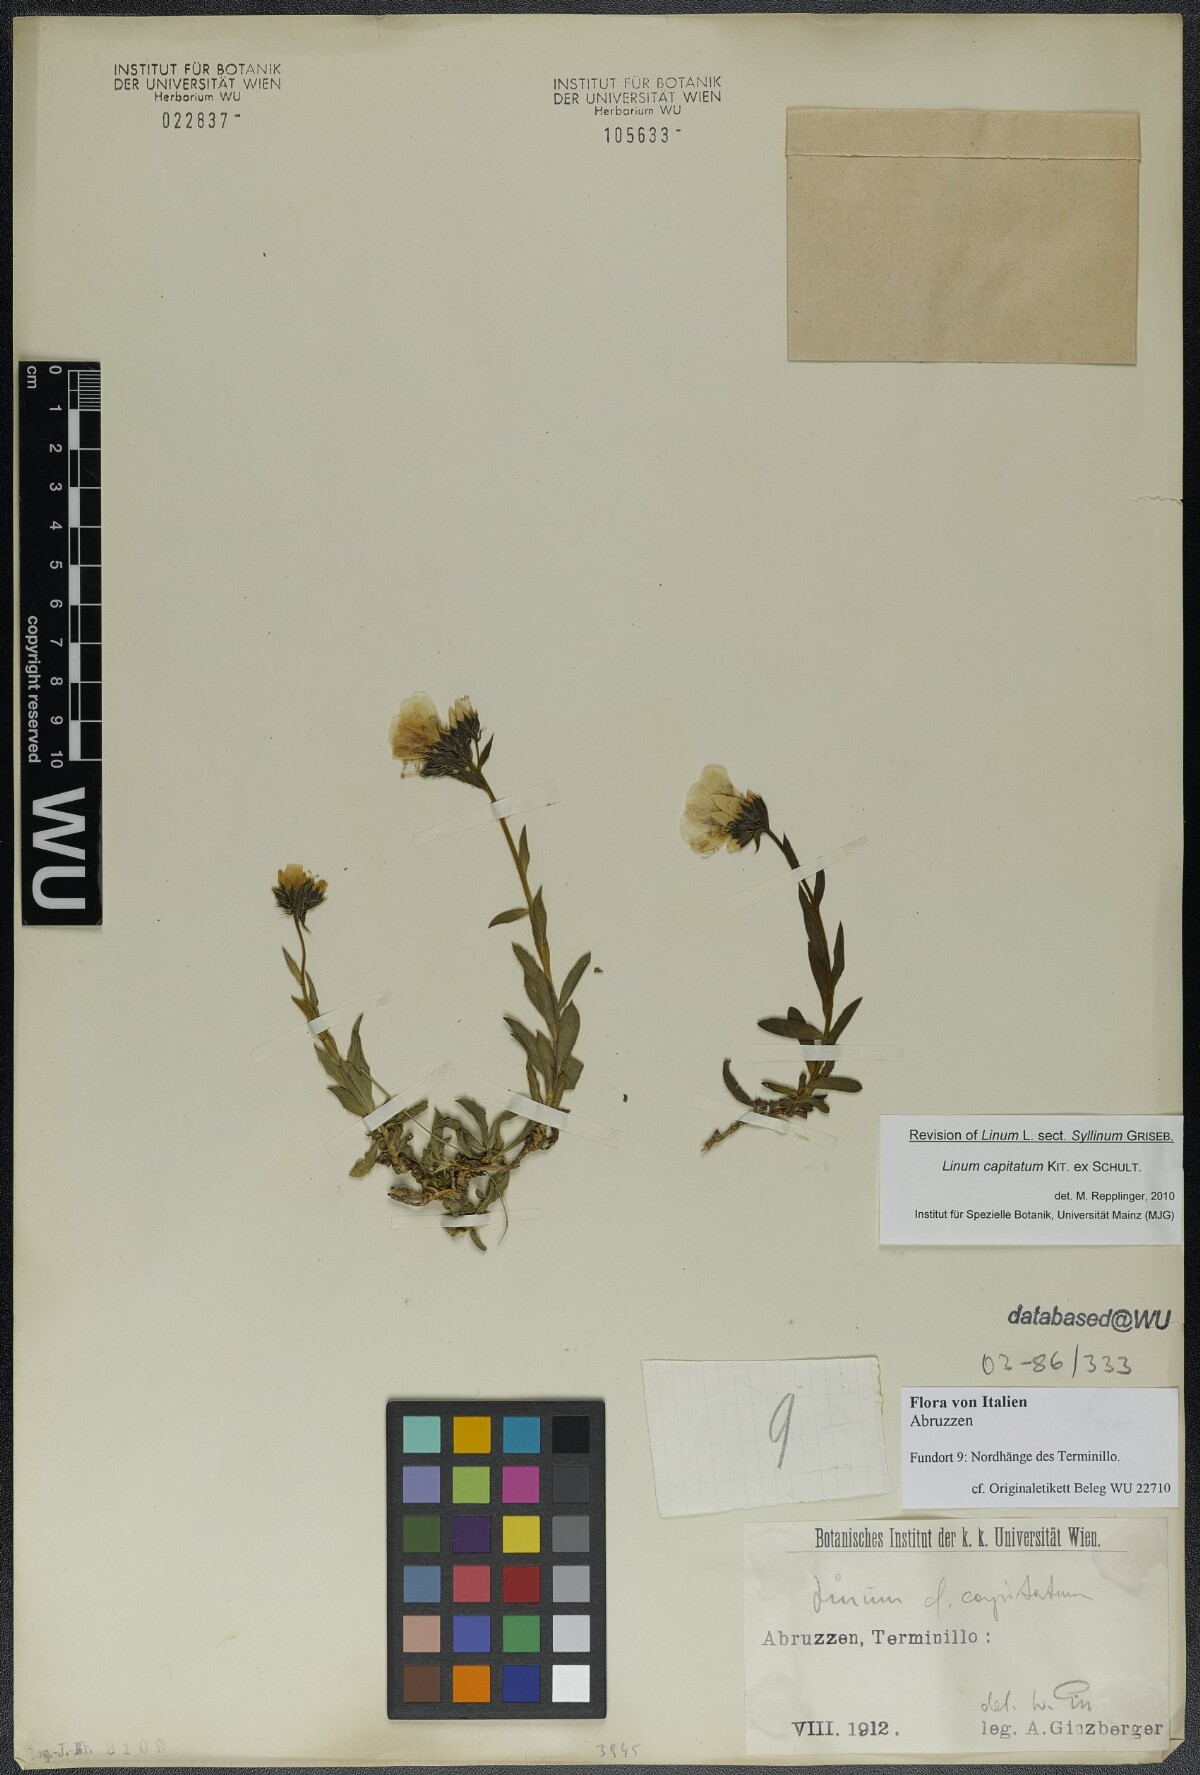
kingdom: Plantae
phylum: Tracheophyta
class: Magnoliopsida
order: Malpighiales
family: Linaceae
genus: Linum
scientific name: Linum capitatum
